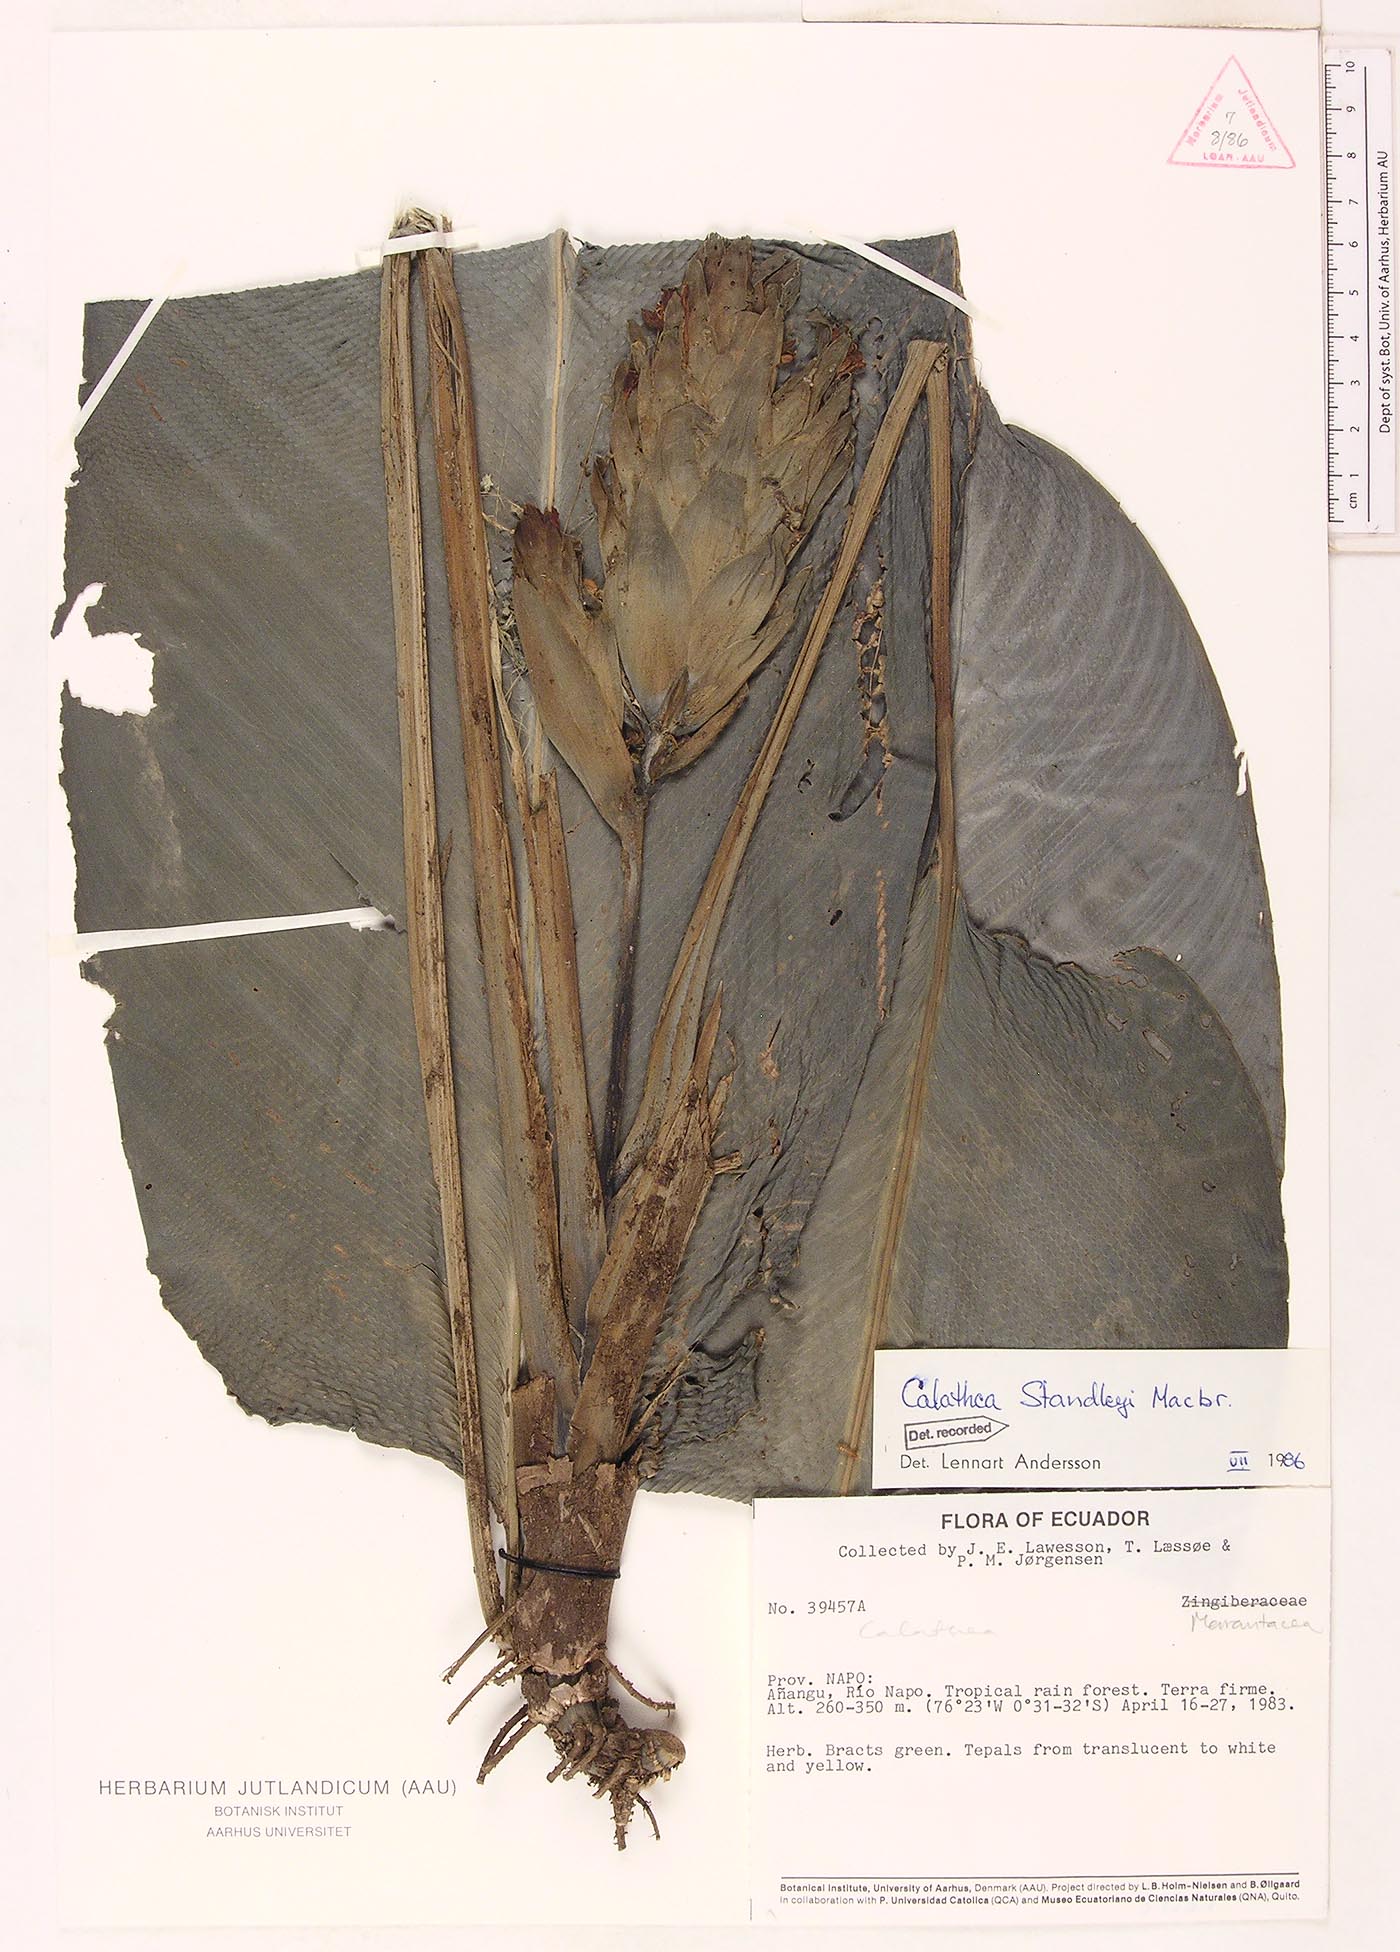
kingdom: Plantae
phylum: Tracheophyta
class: Liliopsida
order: Zingiberales
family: Marantaceae
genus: Goeppertia
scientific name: Goeppertia standleyi
